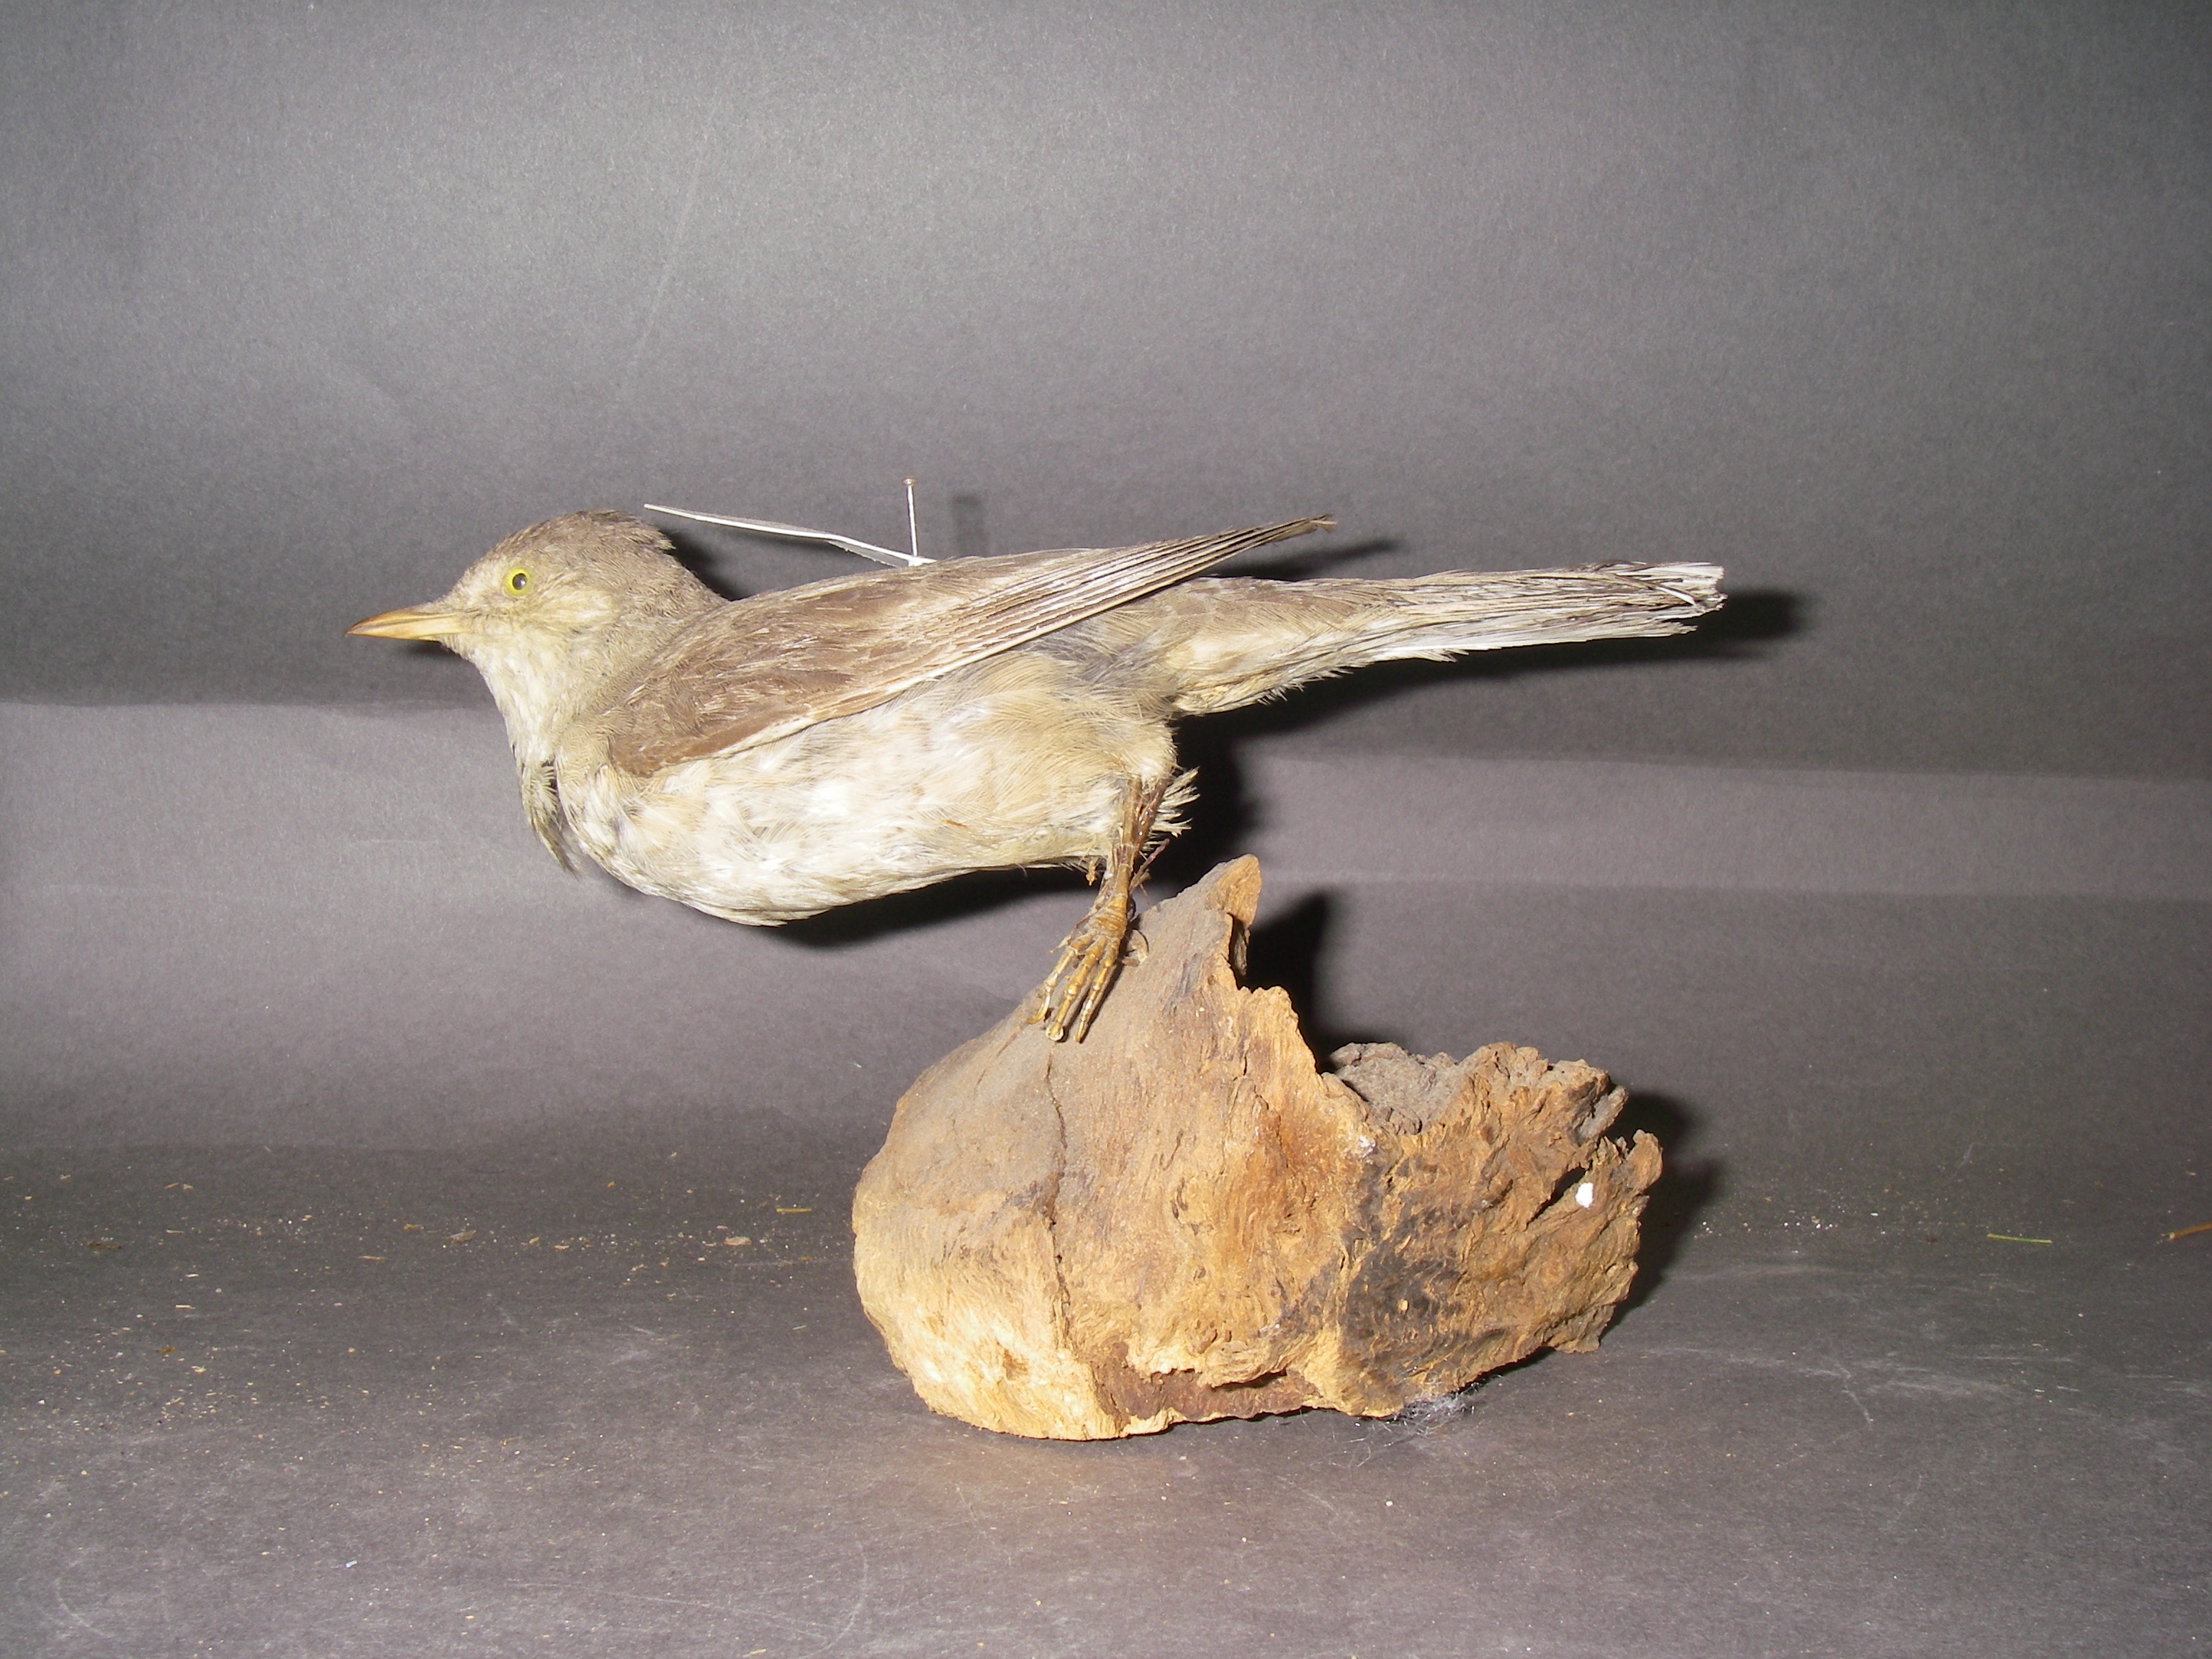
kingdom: Animalia
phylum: Chordata
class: Aves
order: Passeriformes
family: Sylviidae
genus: Sylvia
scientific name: Sylvia nisoria
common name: Barred warbler
